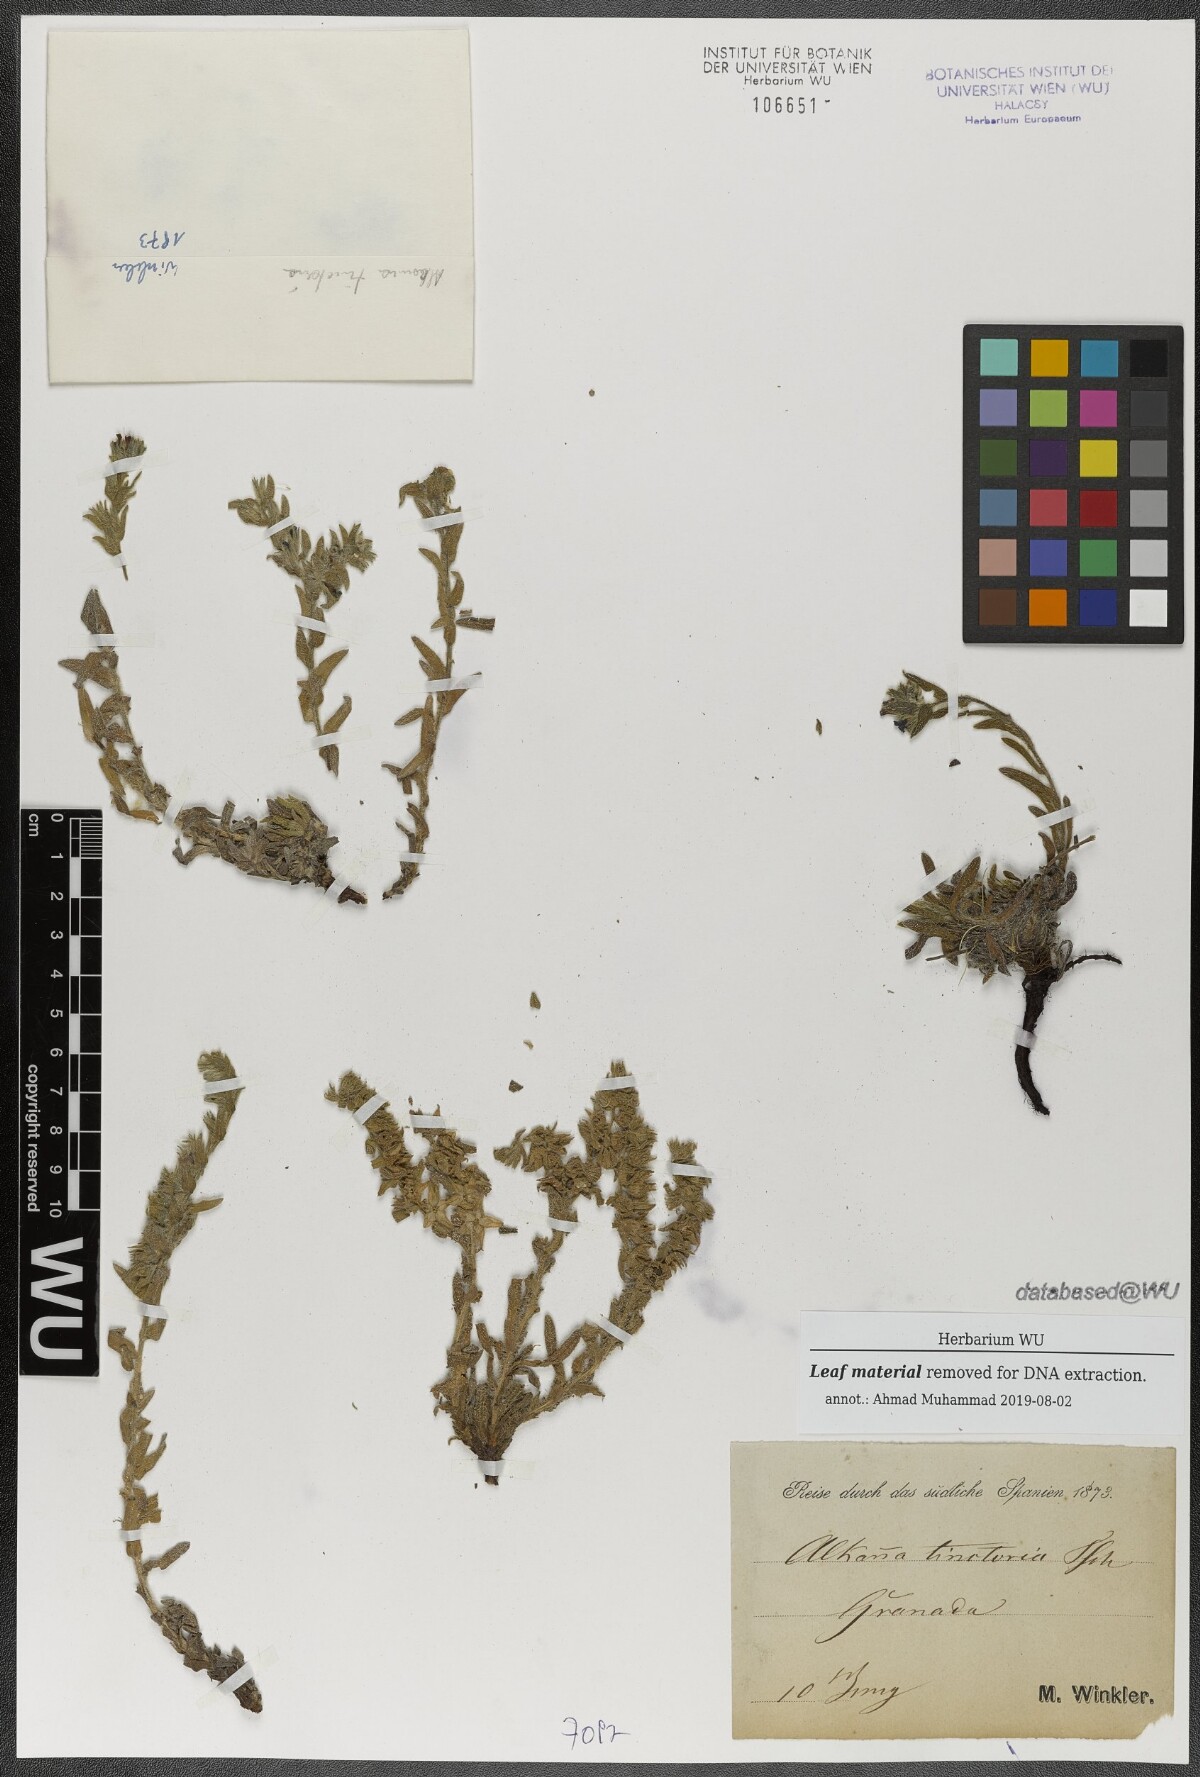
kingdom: Plantae
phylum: Tracheophyta
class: Magnoliopsida
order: Boraginales
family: Boraginaceae
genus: Alkanna
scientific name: Alkanna tinctoria
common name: Dyer's-alkanet
